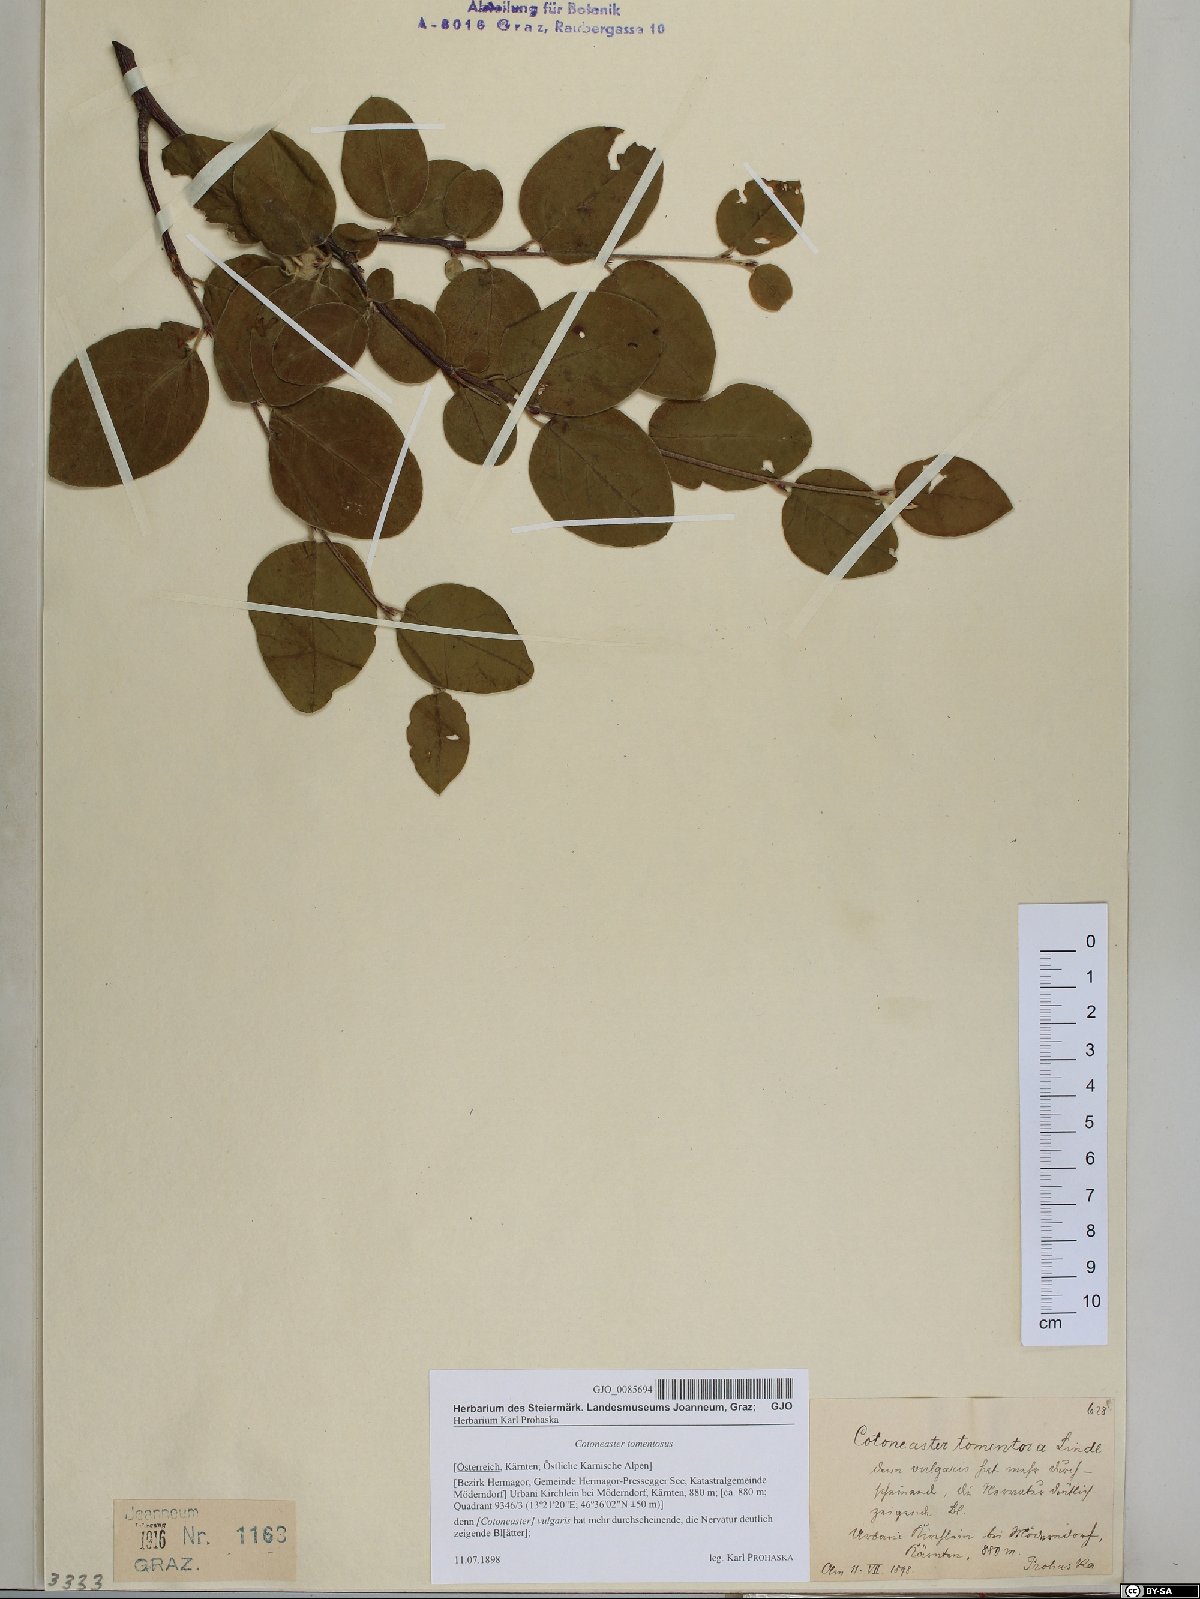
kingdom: Plantae
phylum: Tracheophyta
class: Magnoliopsida
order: Rosales
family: Rosaceae
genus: Cotoneaster
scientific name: Cotoneaster tomentosus
